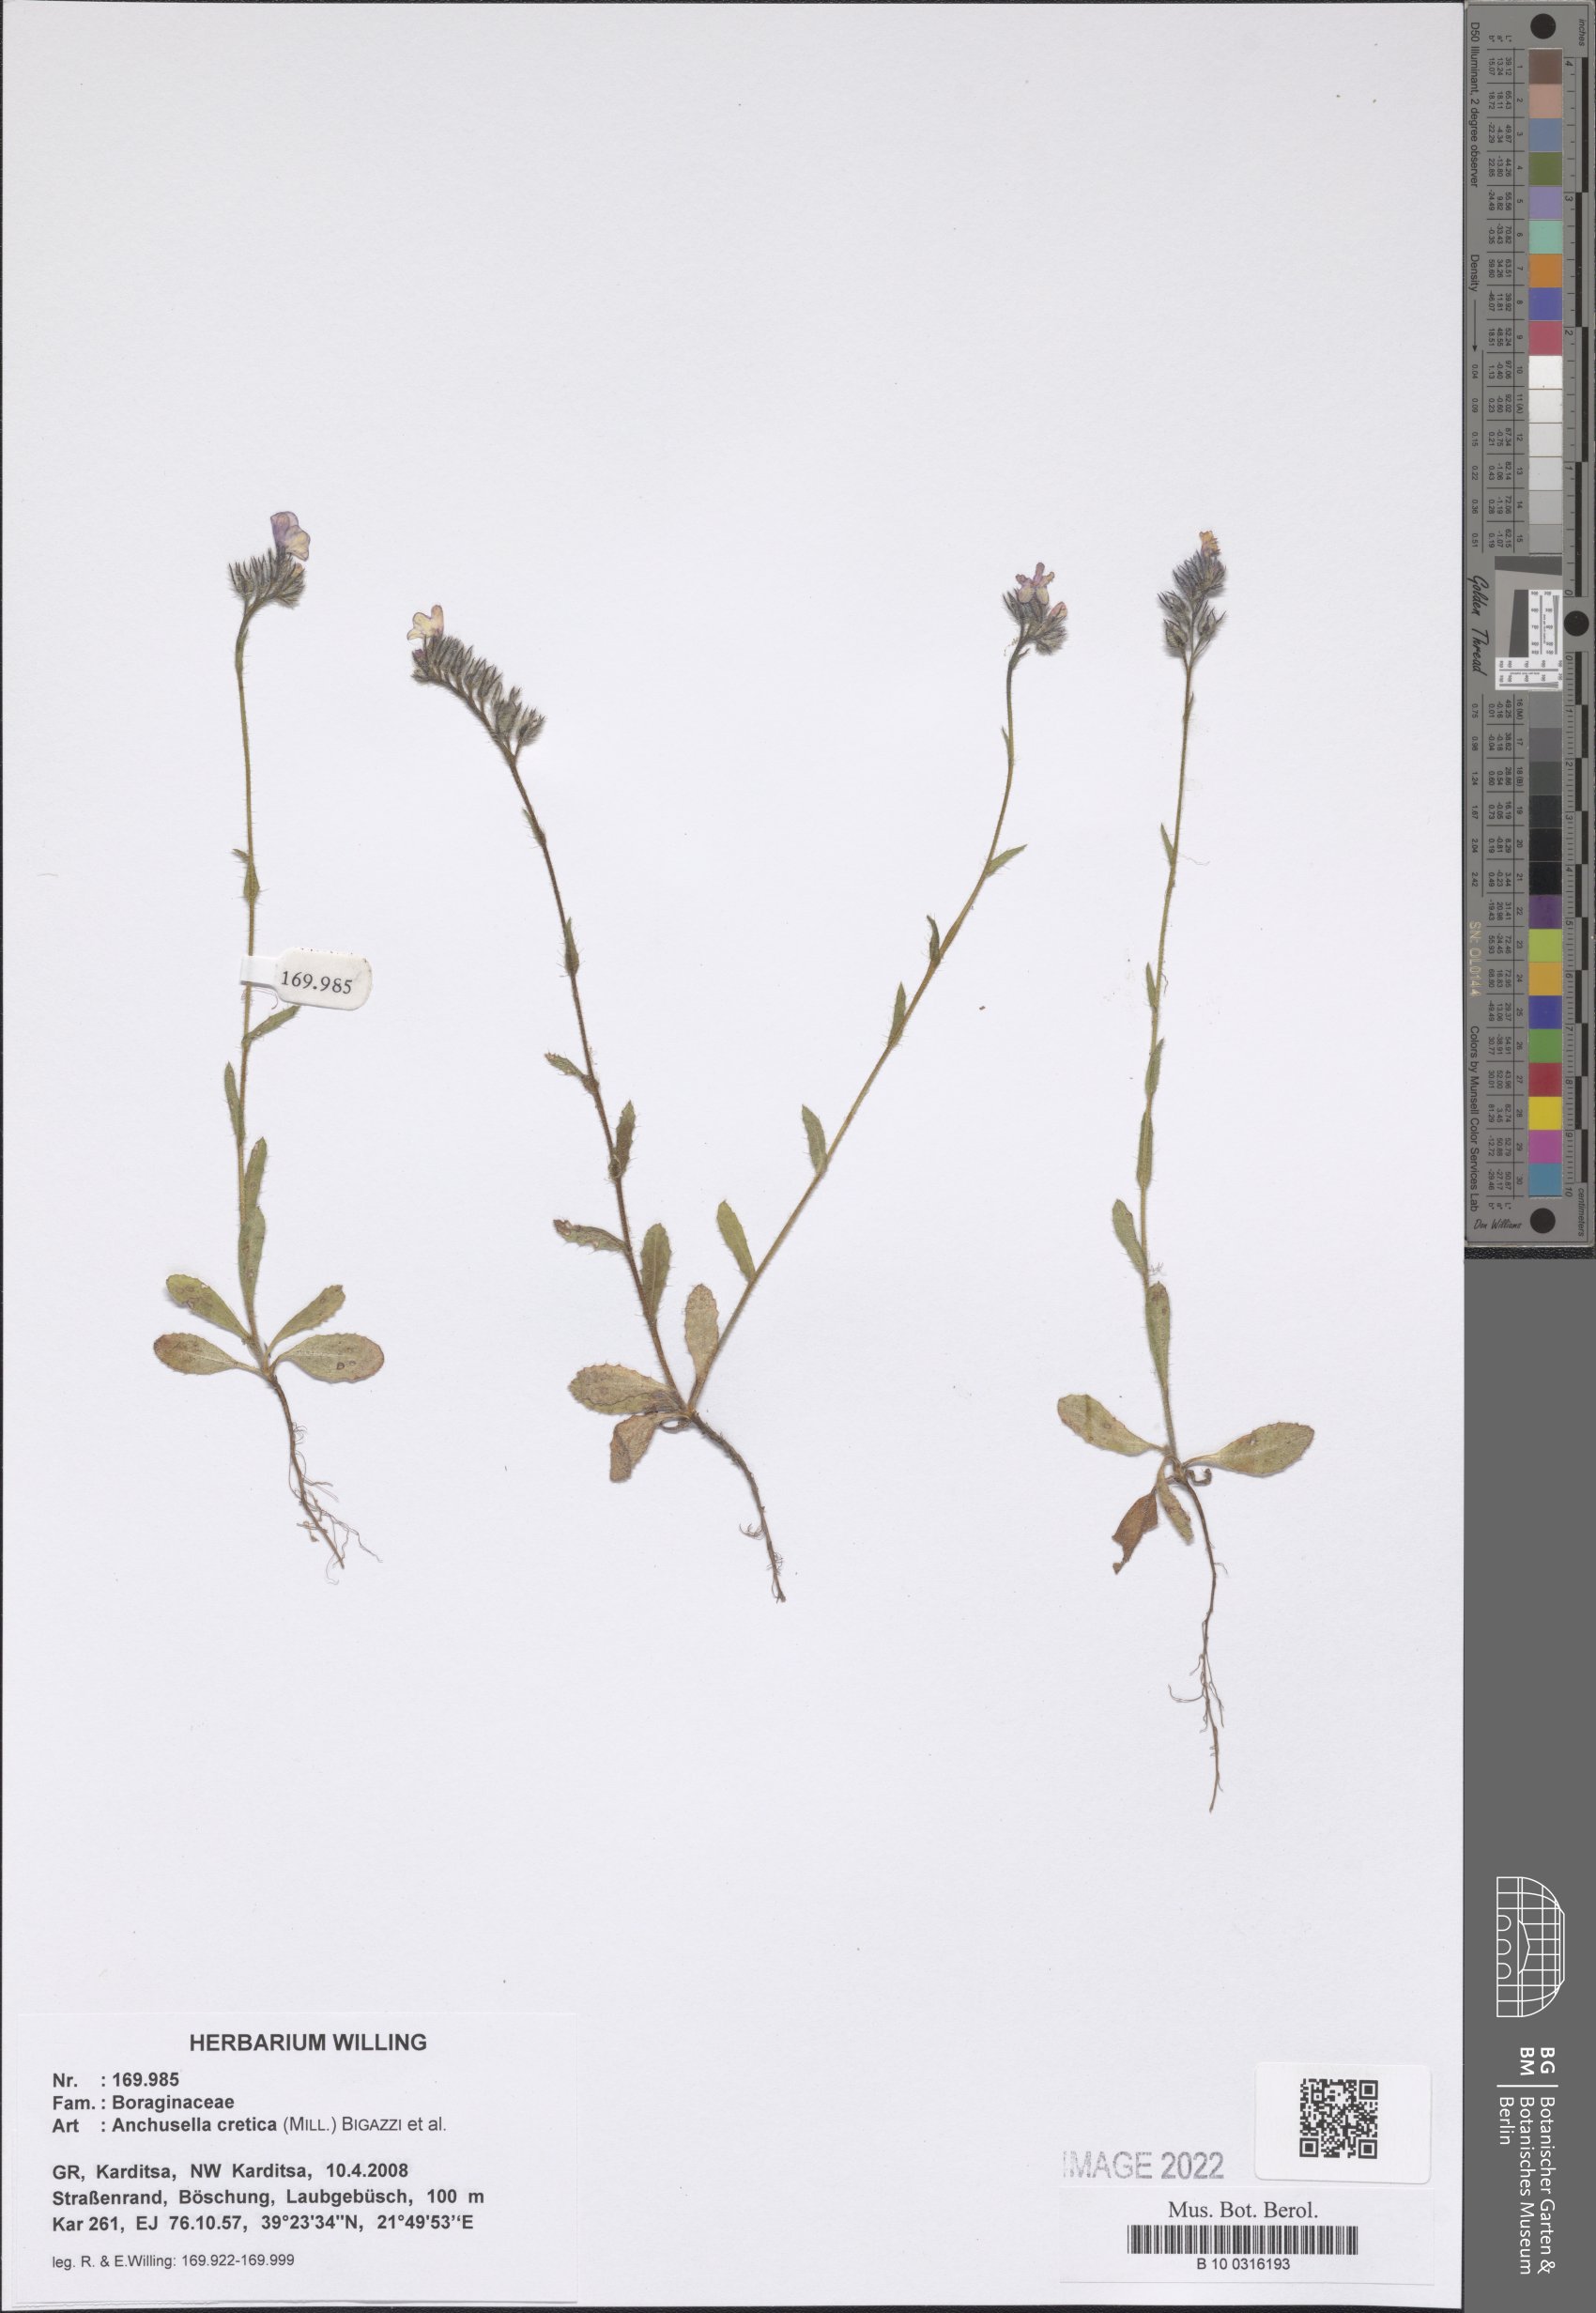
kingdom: Plantae
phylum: Tracheophyta
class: Magnoliopsida
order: Boraginales
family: Boraginaceae
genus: Anchusella
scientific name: Anchusella cretica
